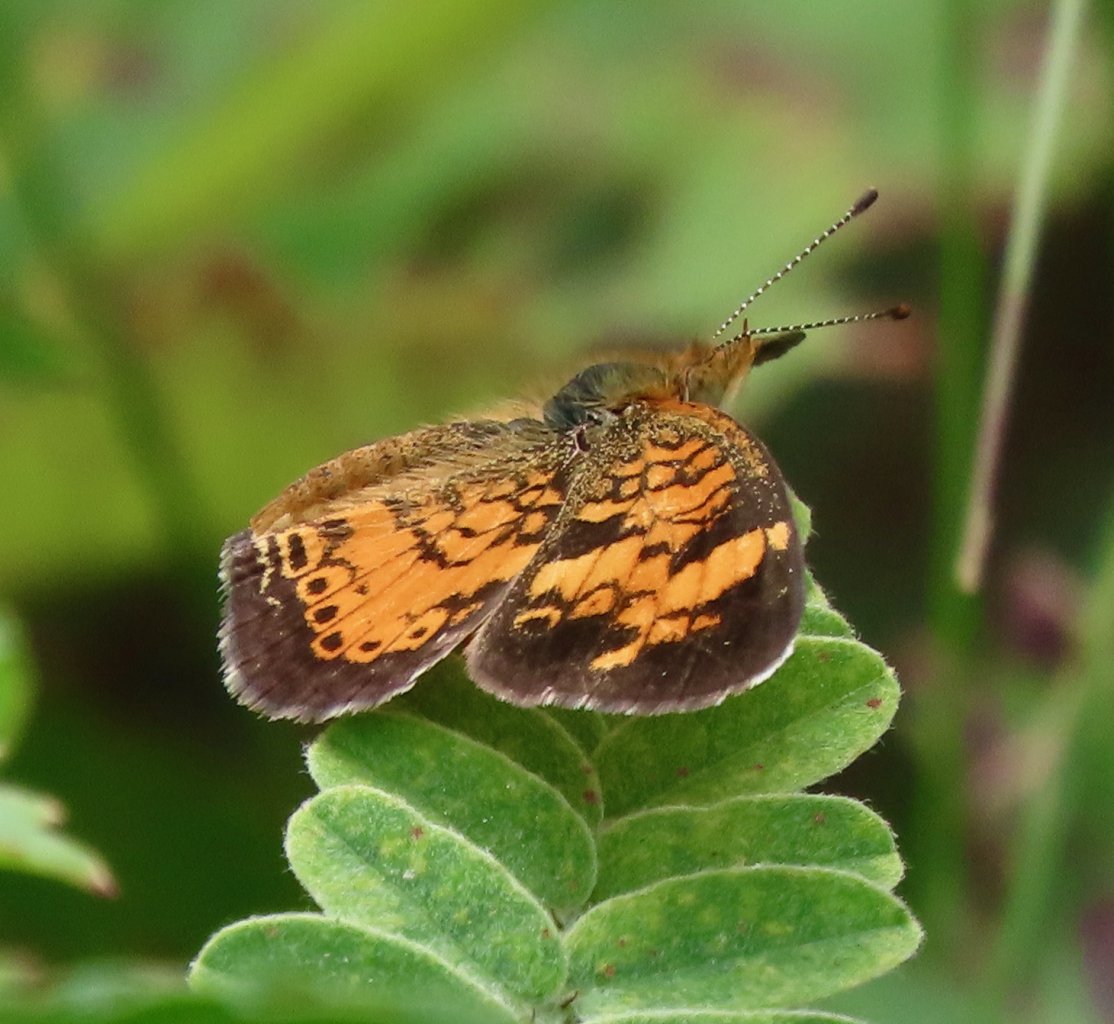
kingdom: Animalia
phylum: Arthropoda
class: Insecta
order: Lepidoptera
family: Nymphalidae
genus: Phyciodes
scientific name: Phyciodes tharos
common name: Pearl Crescent
